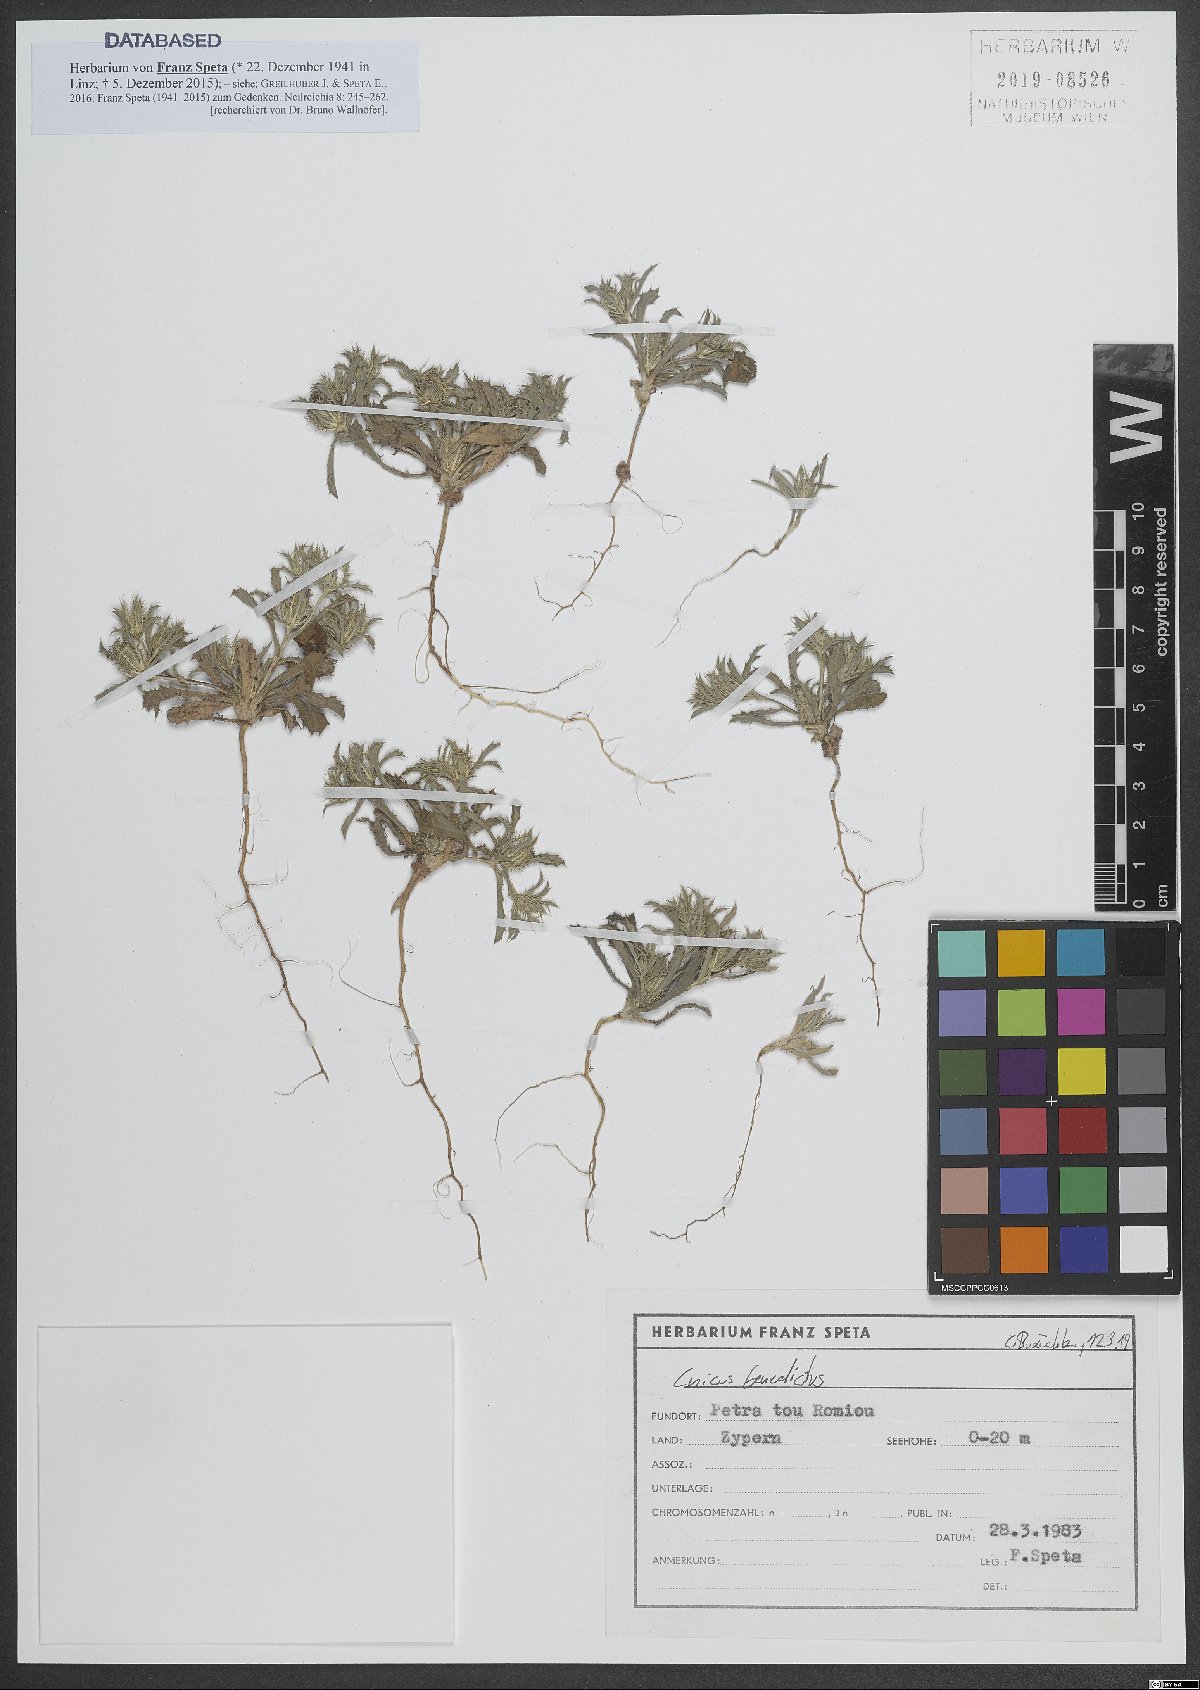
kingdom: Plantae
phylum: Tracheophyta
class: Magnoliopsida
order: Asterales
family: Asteraceae
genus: Centaurea
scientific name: Centaurea benedicta
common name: Blessed thistle
